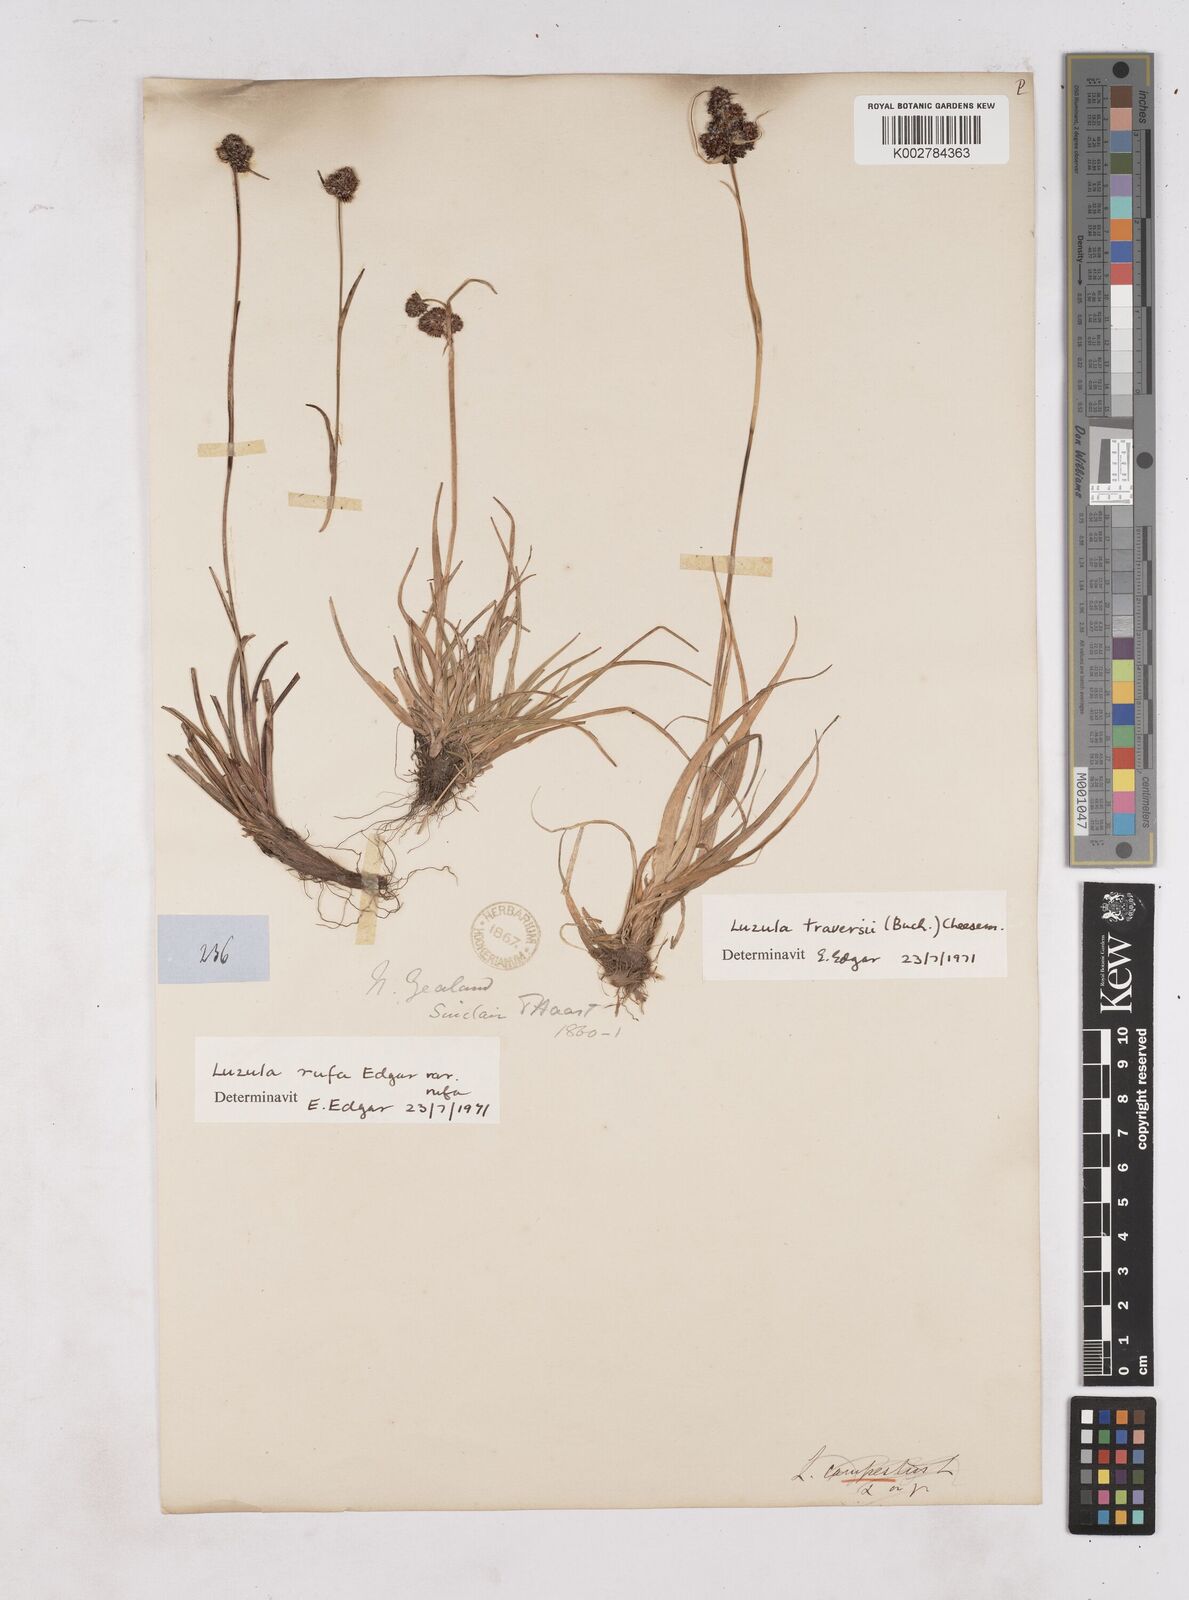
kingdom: Plantae
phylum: Tracheophyta
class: Liliopsida
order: Poales
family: Juncaceae
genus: Luzula
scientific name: Luzula
